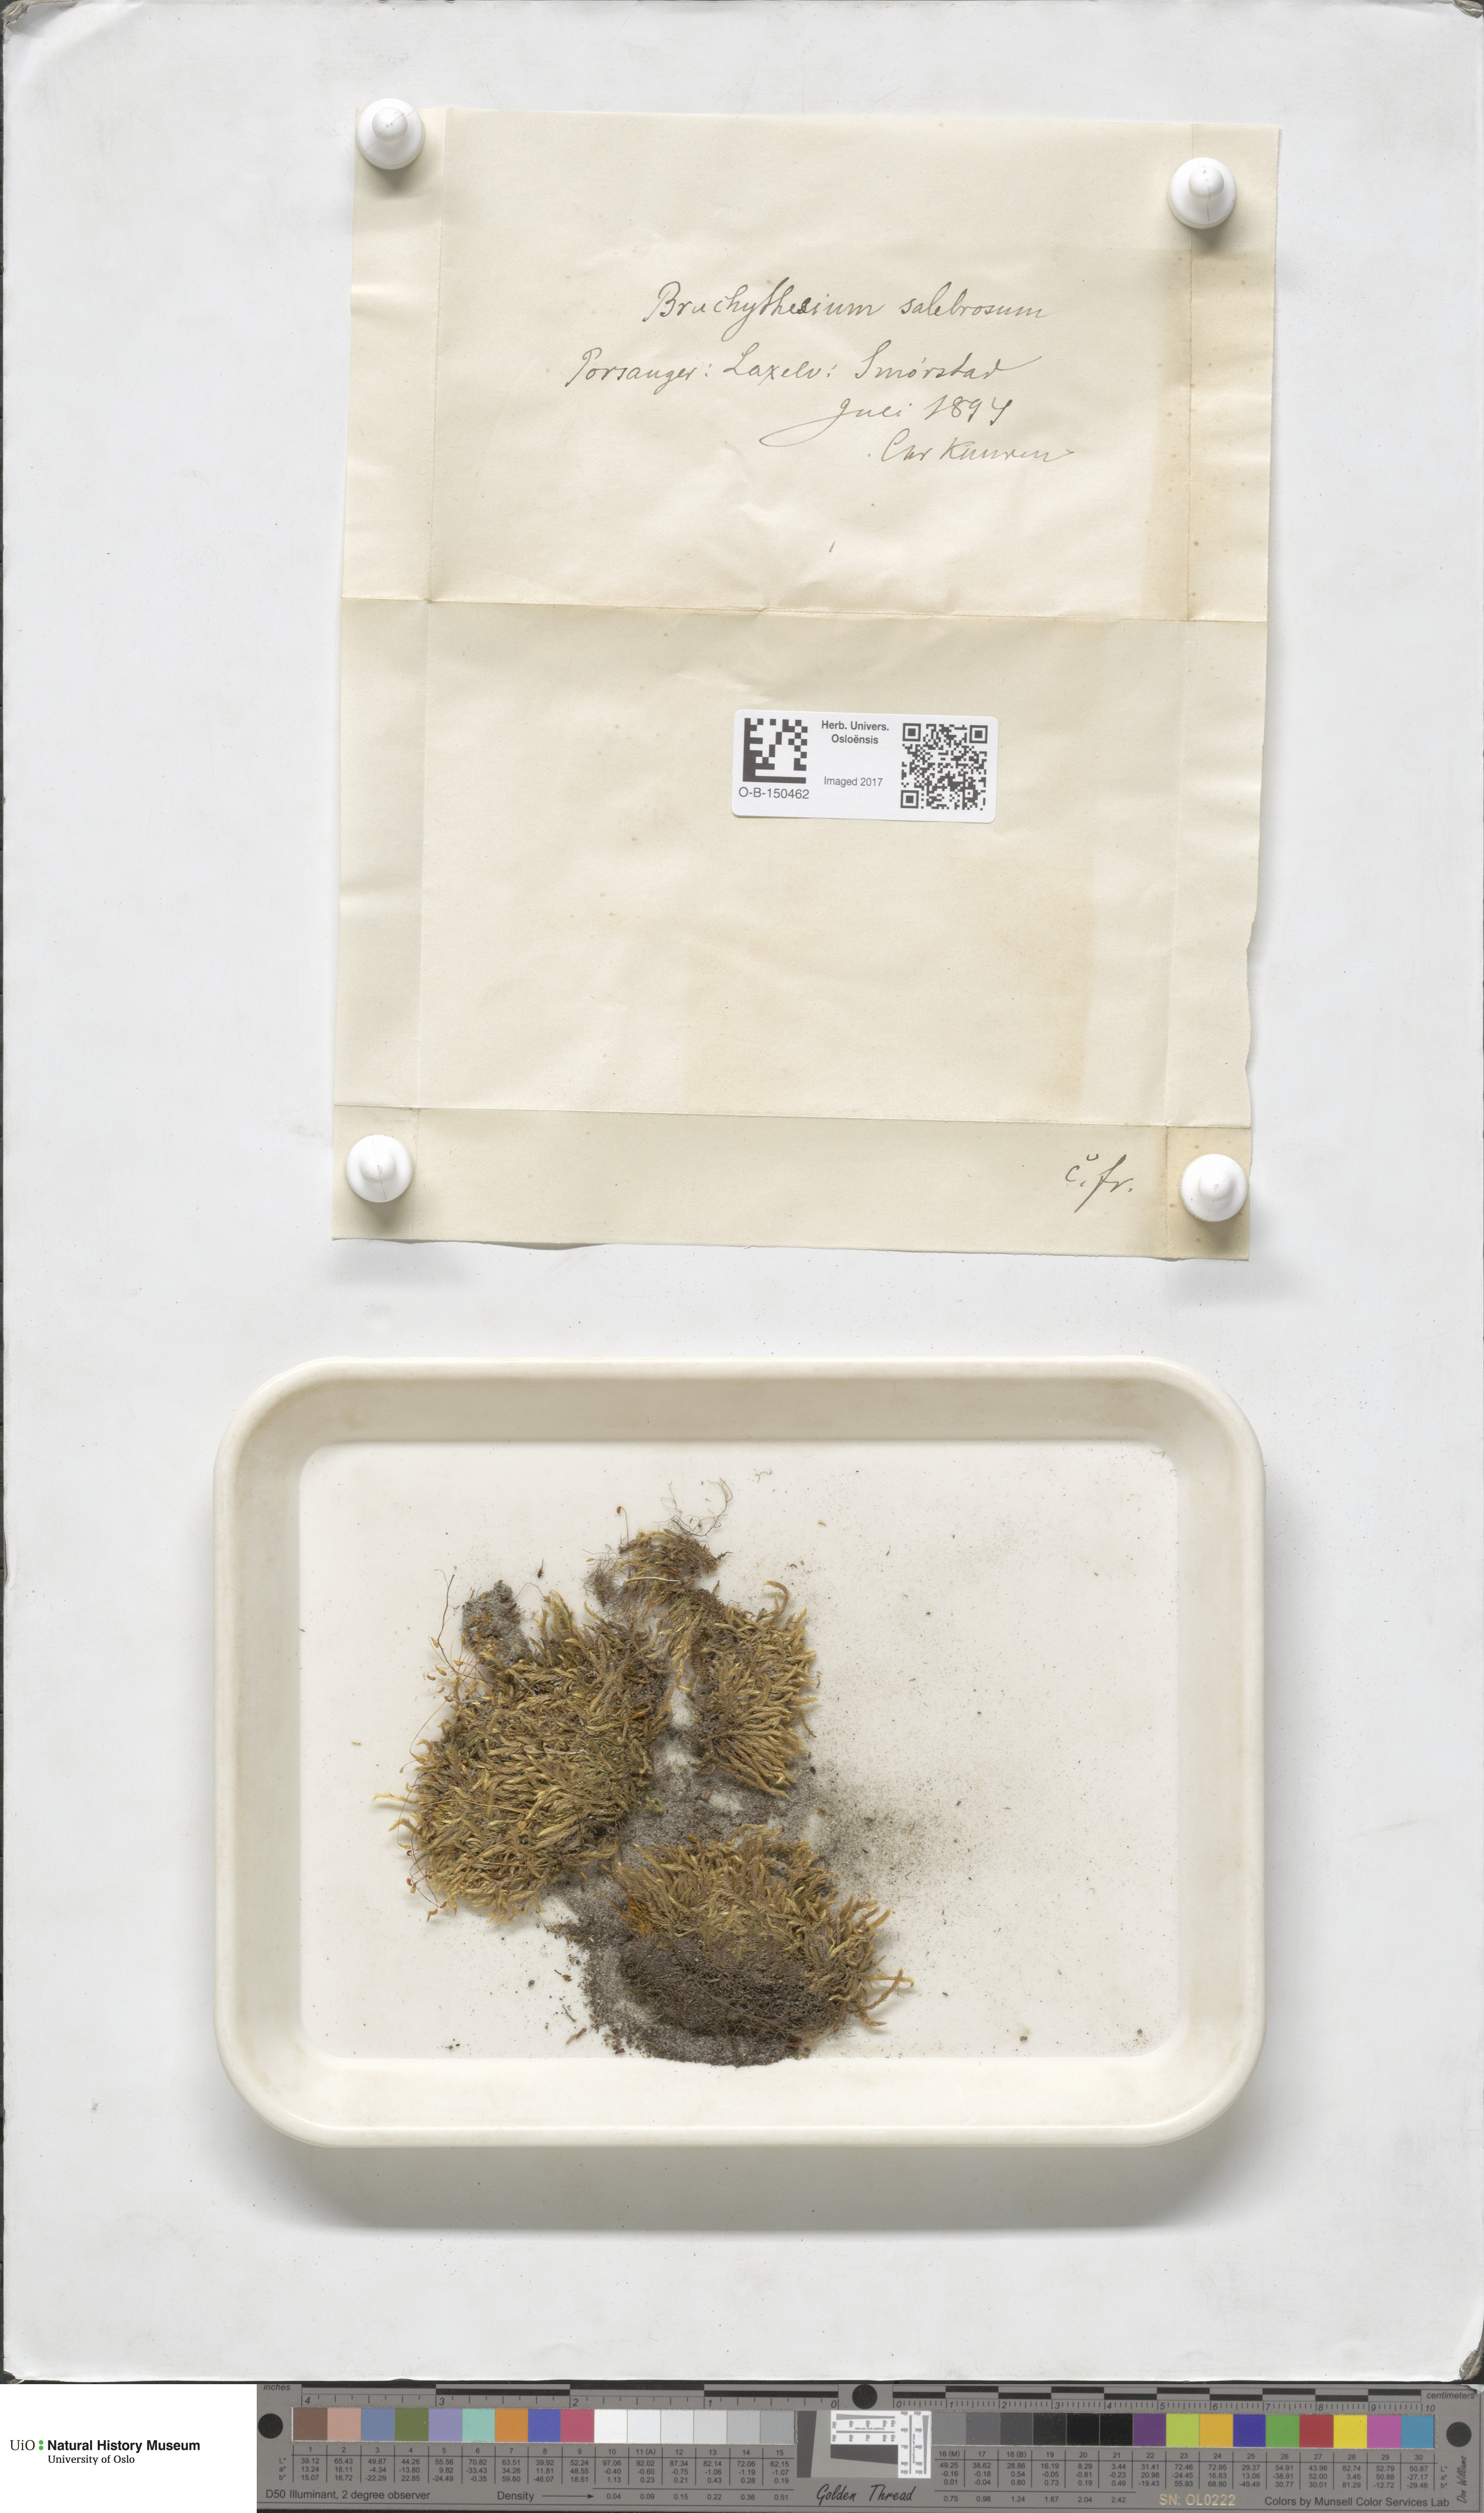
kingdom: Plantae
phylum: Bryophyta
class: Bryopsida
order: Hypnales
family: Brachytheciaceae
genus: Brachythecium
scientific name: Brachythecium salebrosum
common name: Smooth-stalk feather-moss
